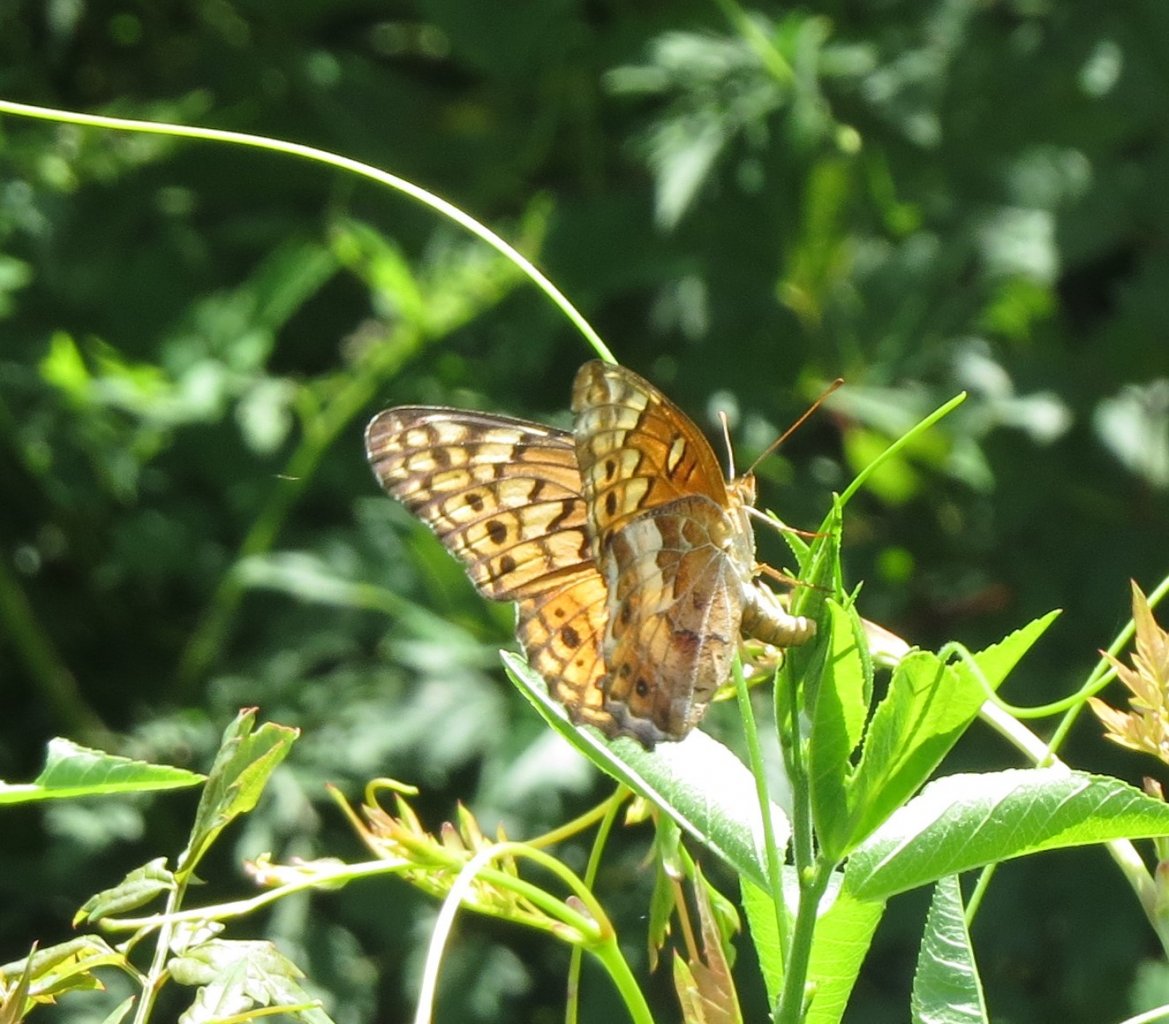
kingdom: Animalia
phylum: Arthropoda
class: Insecta
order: Lepidoptera
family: Nymphalidae
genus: Euptoieta
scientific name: Euptoieta claudia
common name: Variegated Fritillary
